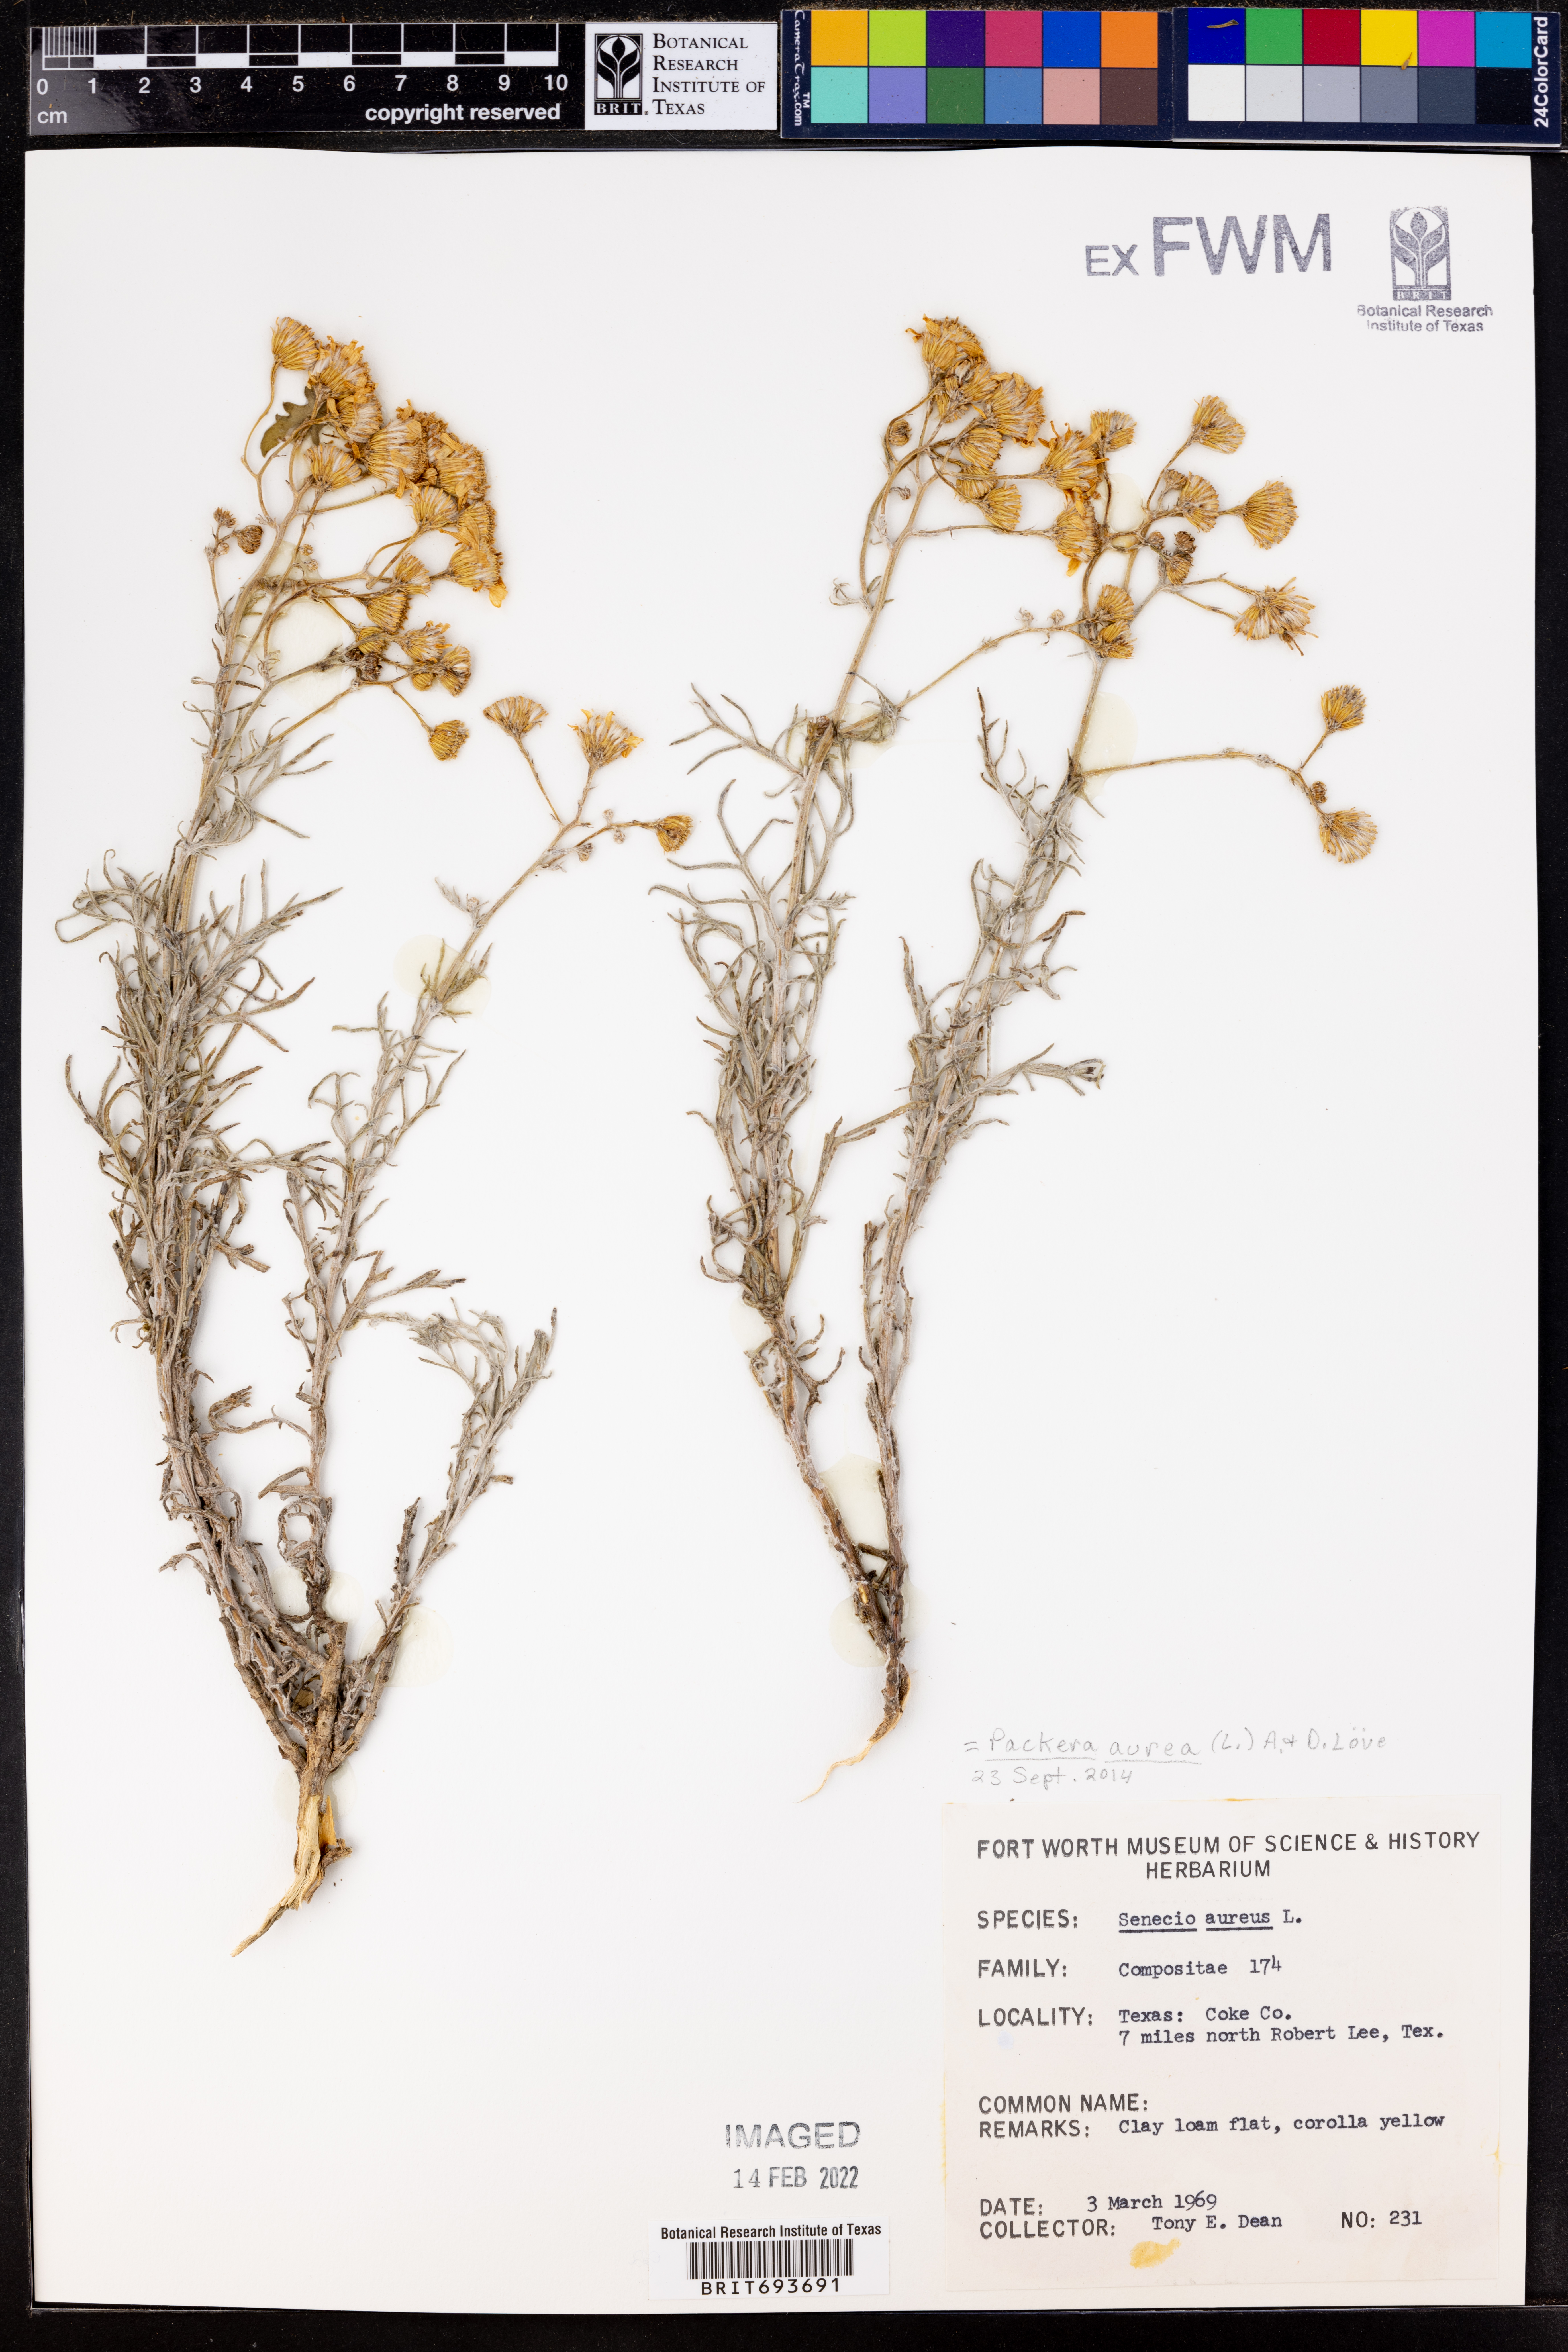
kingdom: Plantae
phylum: Tracheophyta
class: Magnoliopsida
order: Asterales
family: Asteraceae
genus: Packera
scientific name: Packera aurea
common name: Golden groundsel
